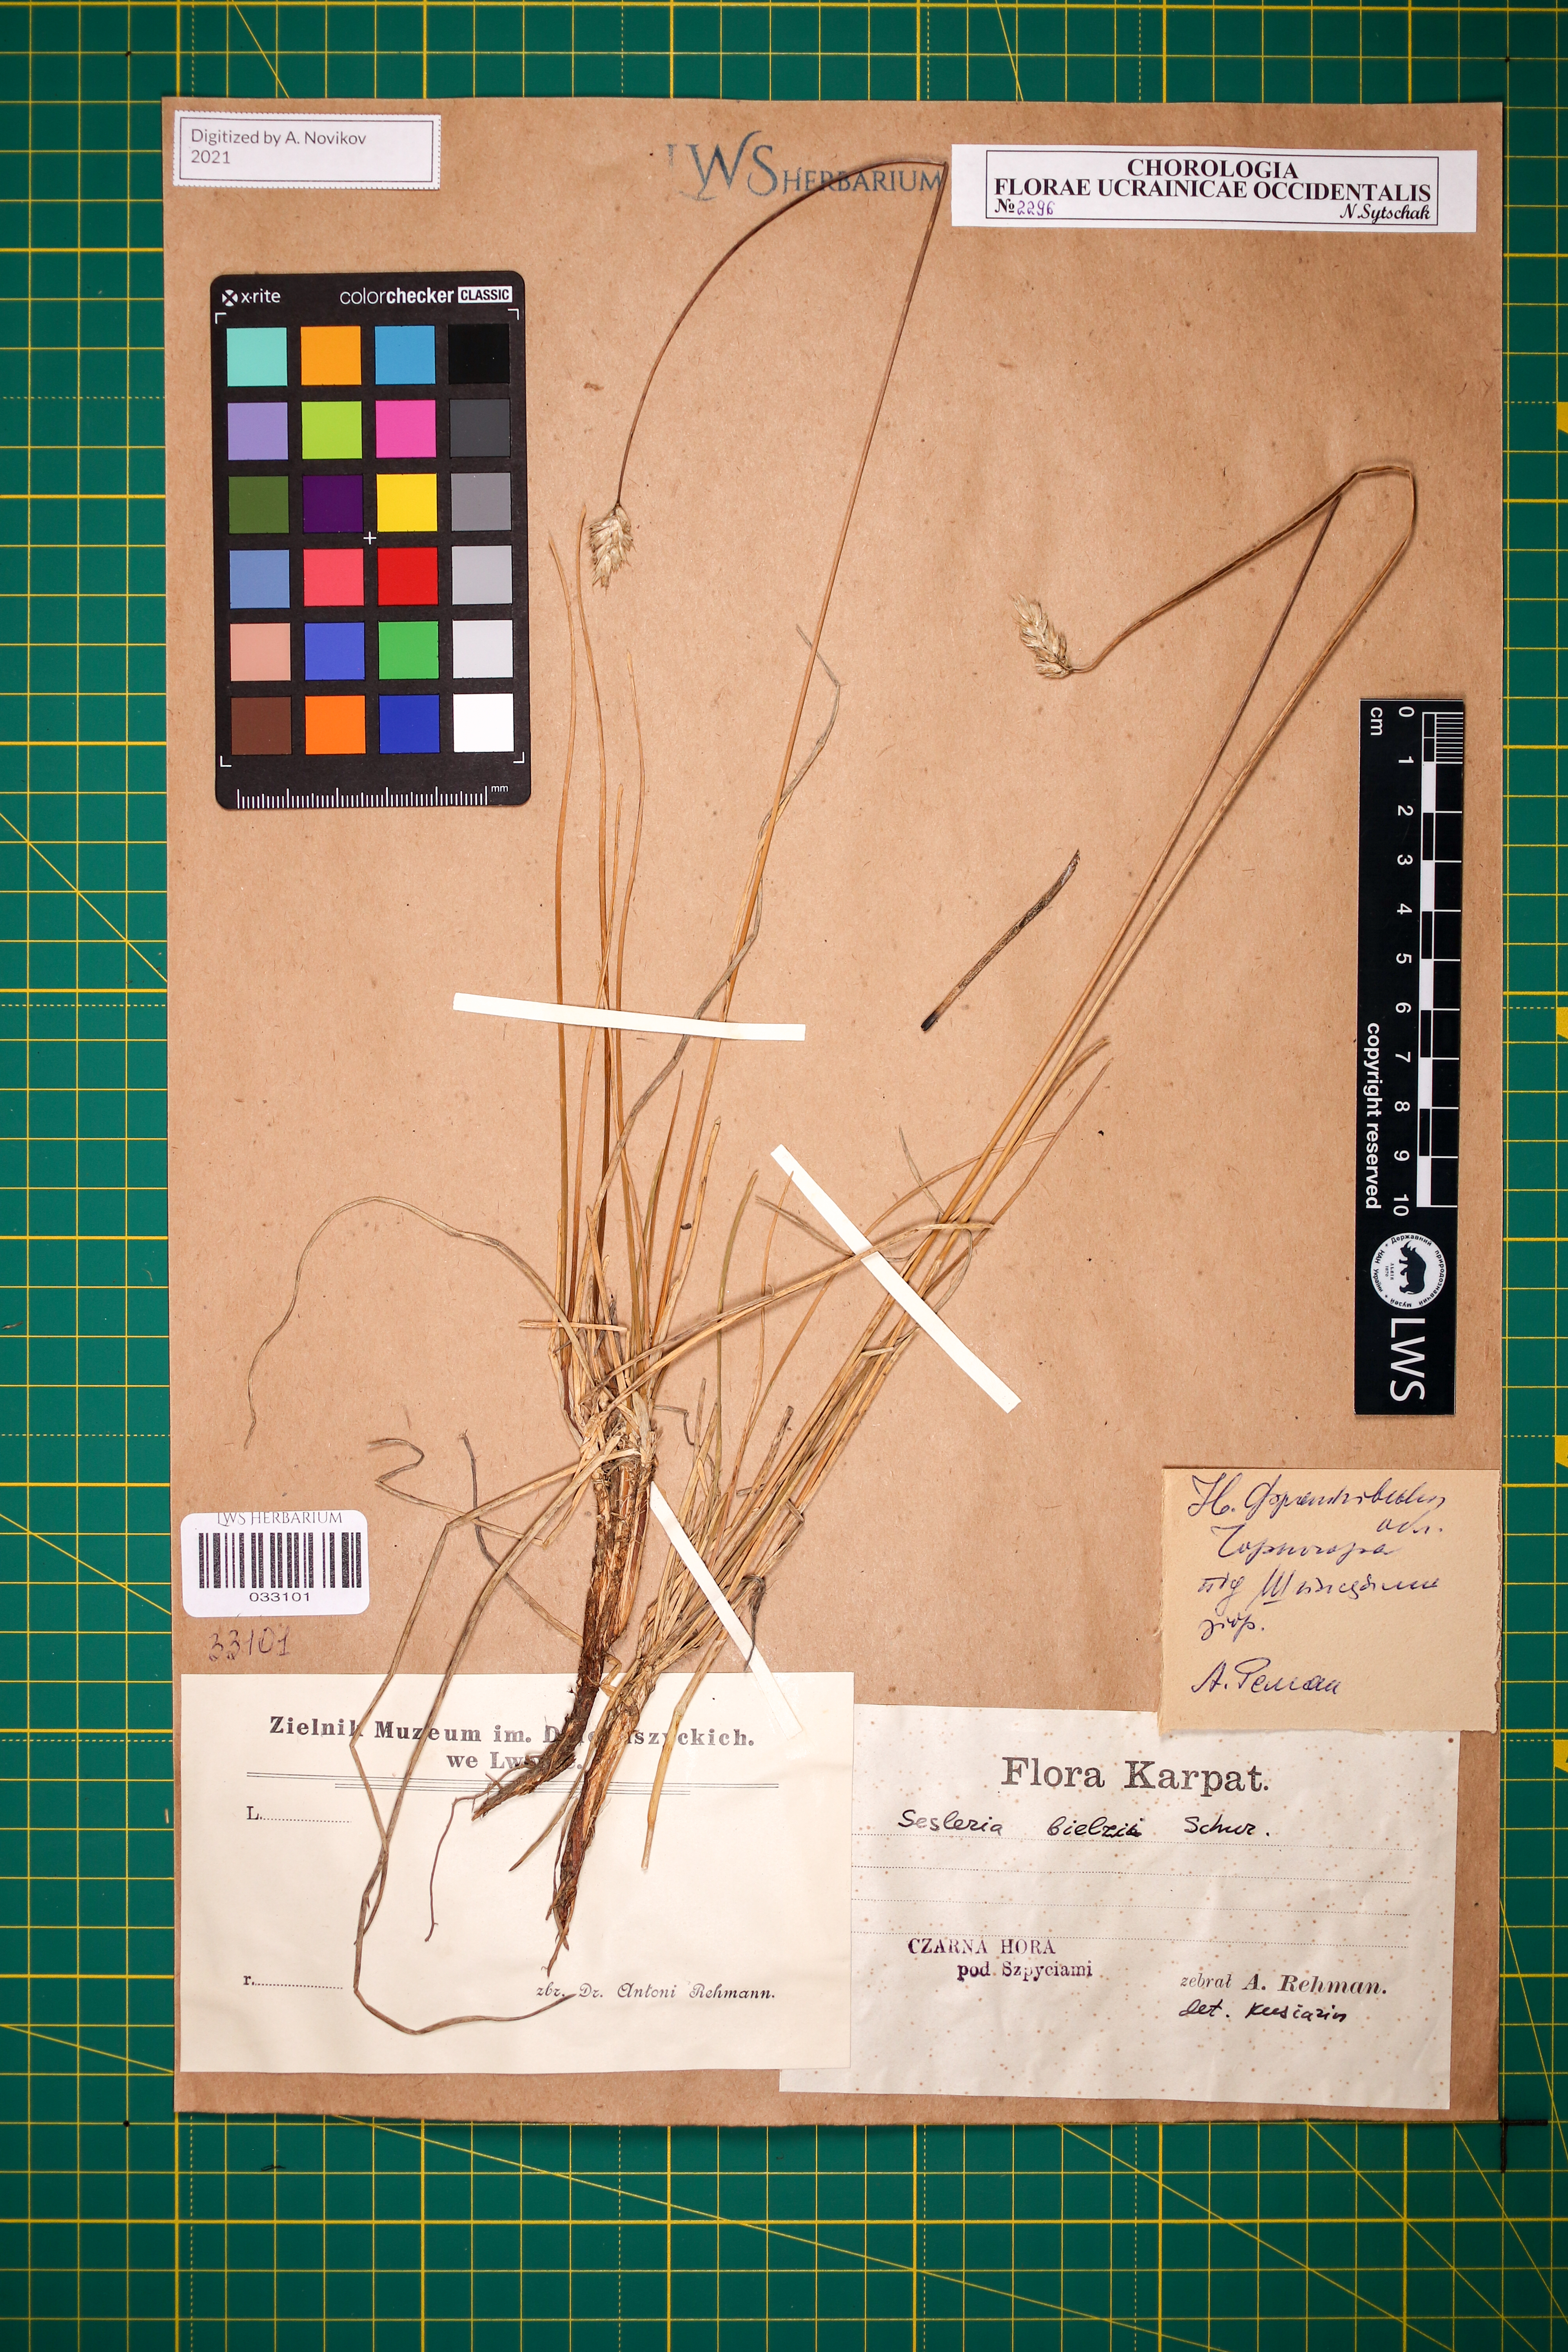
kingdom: Plantae
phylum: Tracheophyta
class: Liliopsida
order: Poales
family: Poaceae
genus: Sesleria
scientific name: Sesleria bielzii
